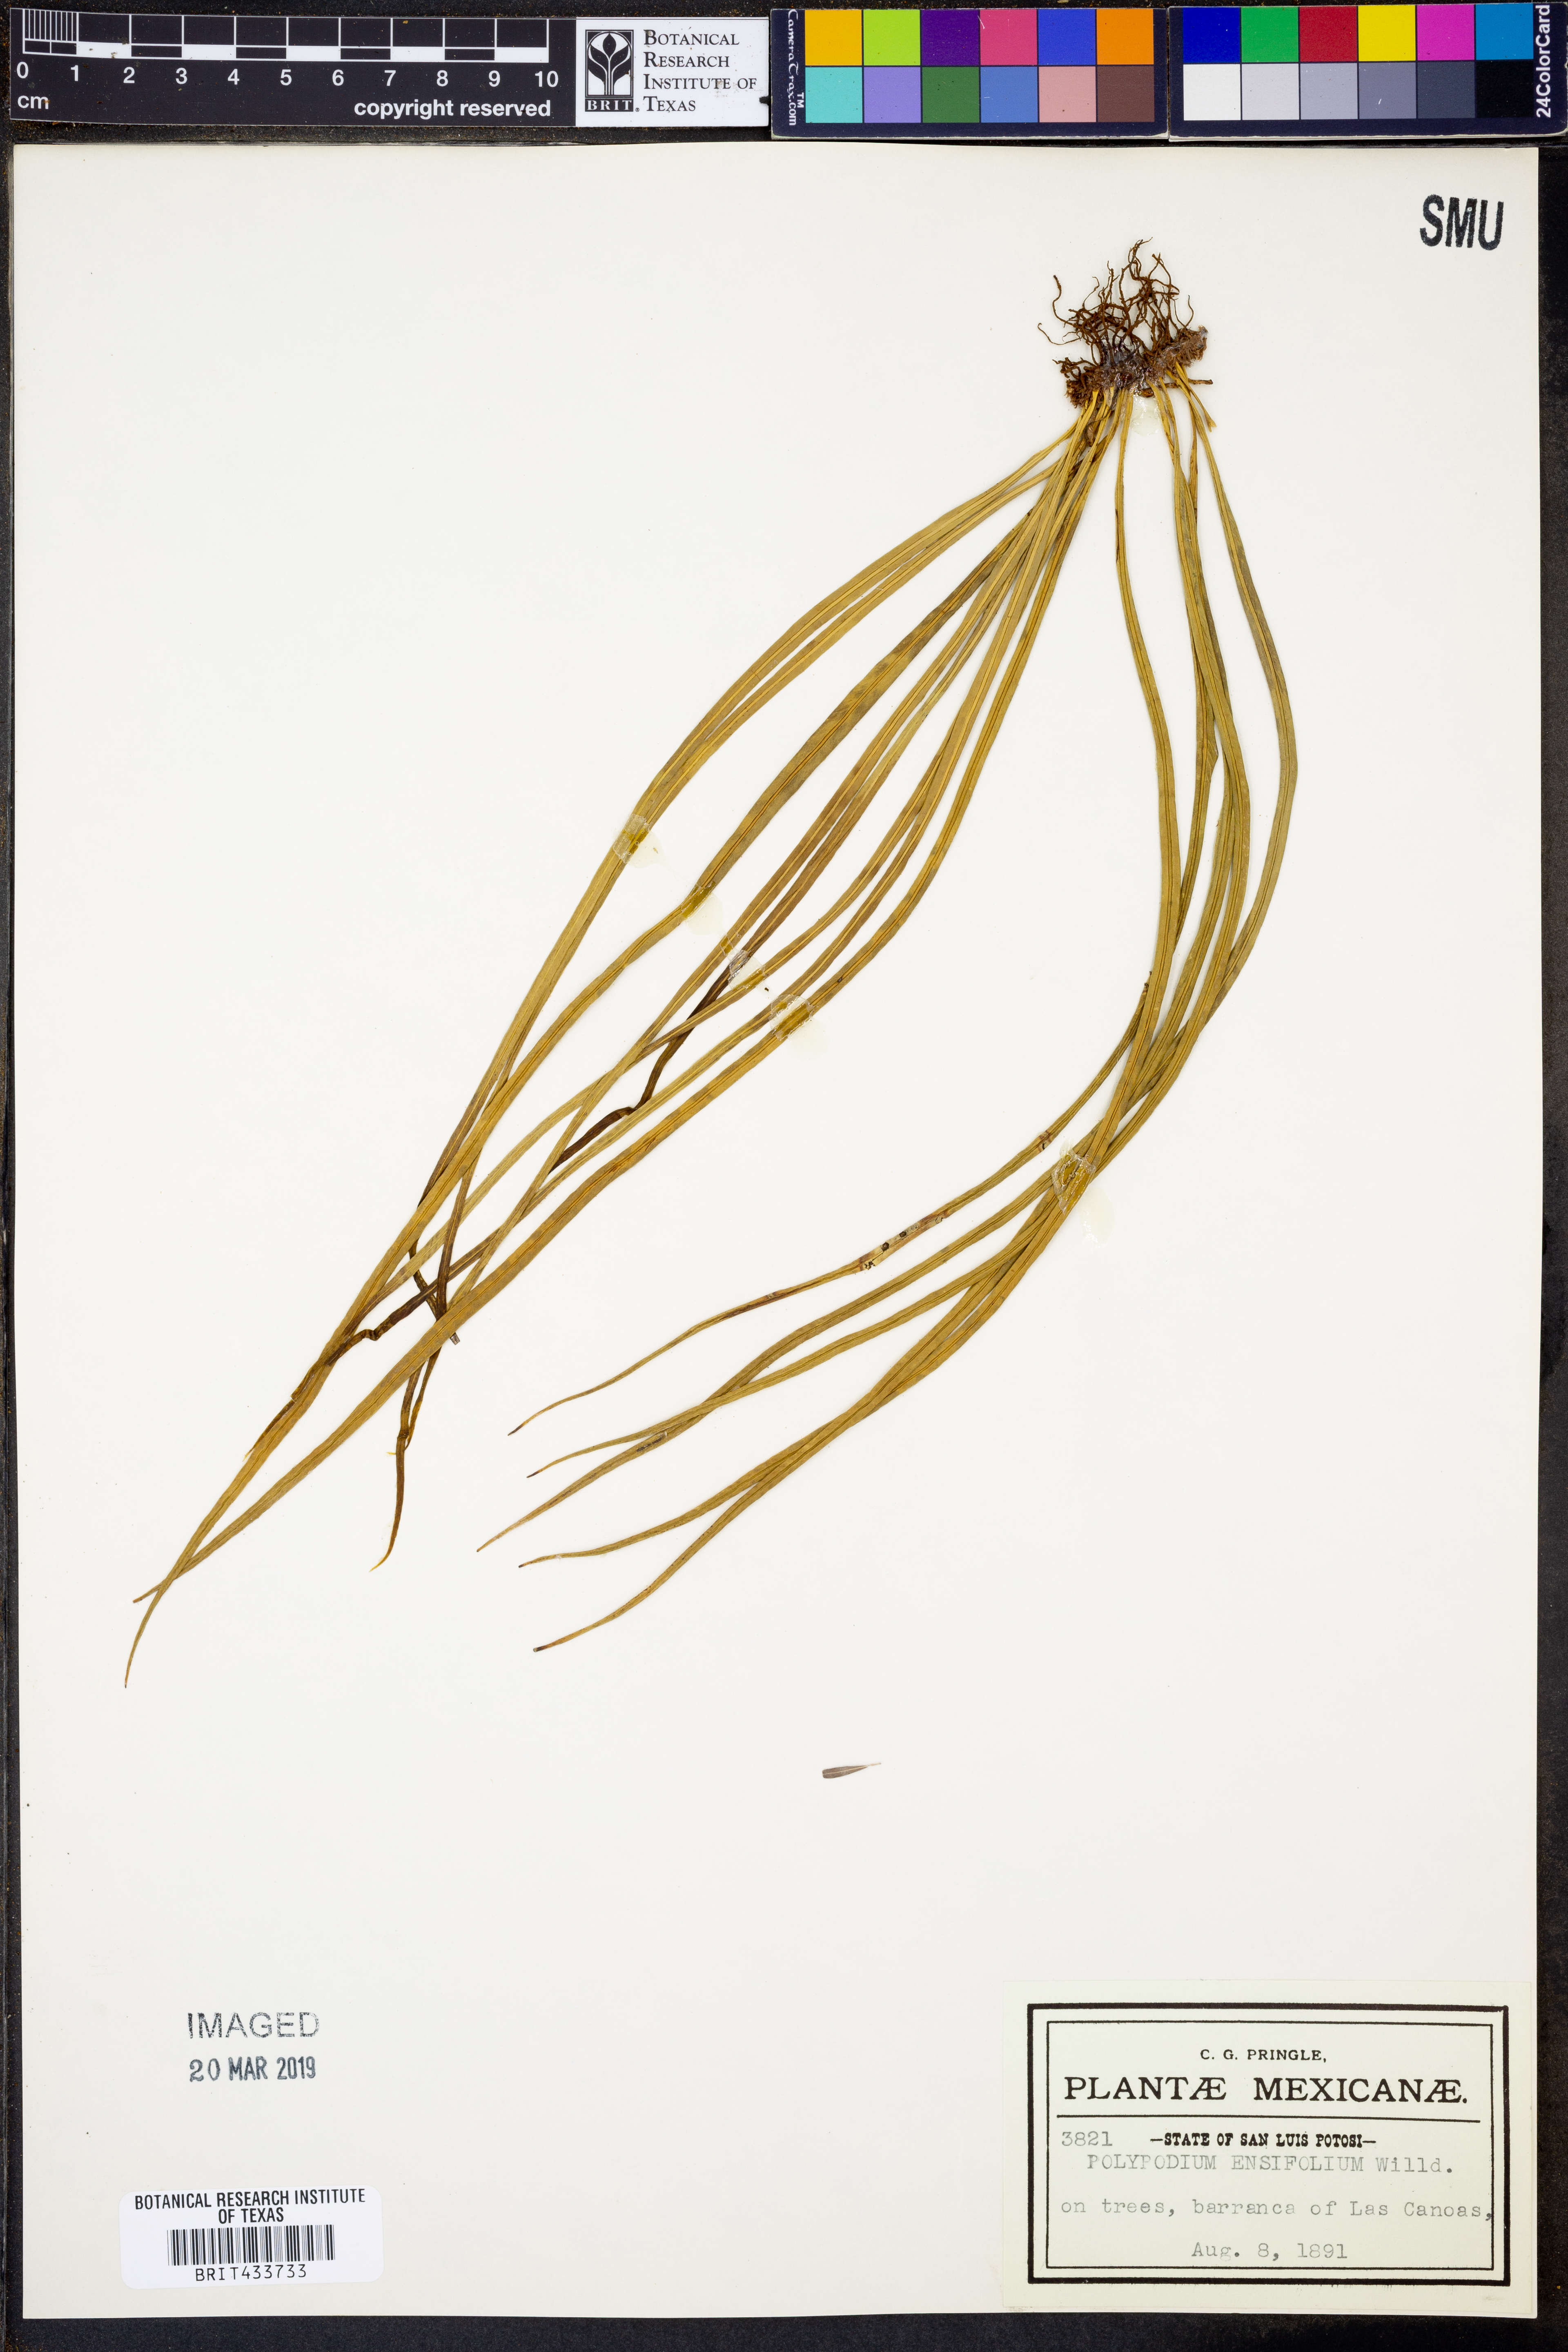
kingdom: Plantae
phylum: Tracheophyta
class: Polypodiopsida
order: Polypodiales
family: Polypodiaceae
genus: Campyloneurum
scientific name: Campyloneurum ensifolium
